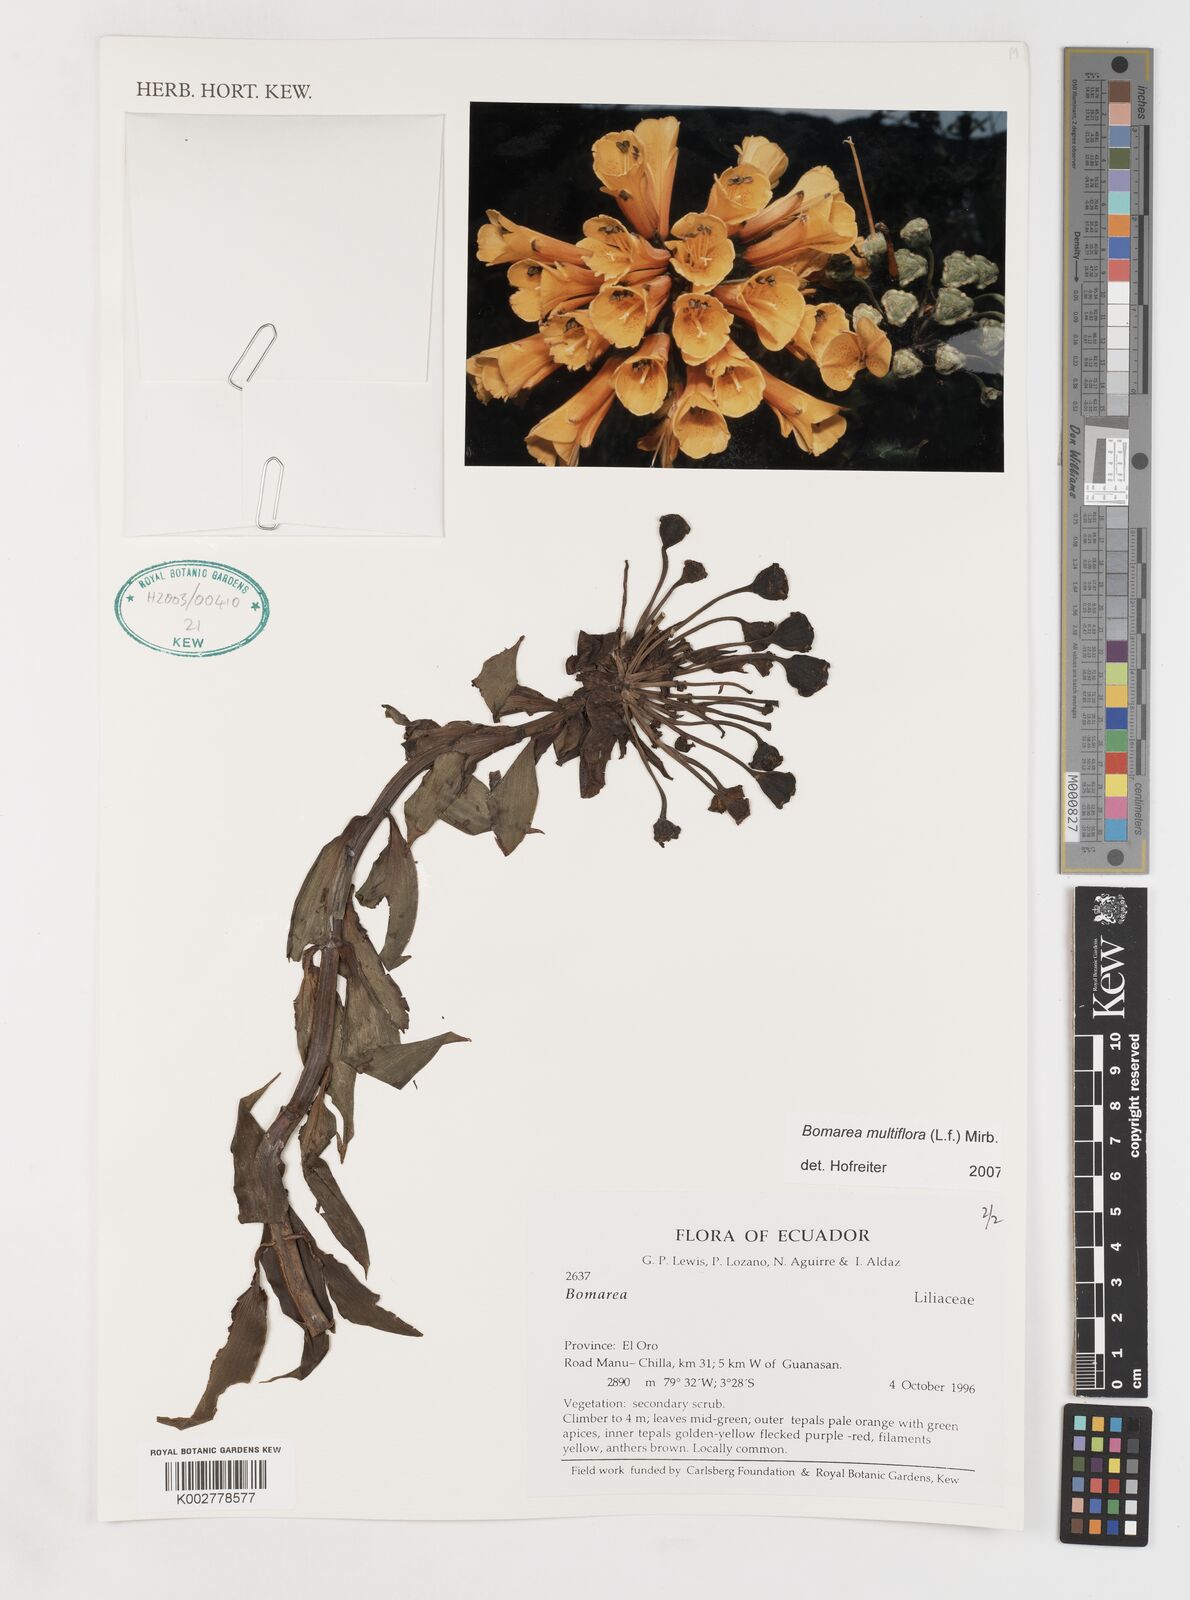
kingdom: Plantae
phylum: Tracheophyta
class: Liliopsida
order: Liliales
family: Alstroemeriaceae
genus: Bomarea
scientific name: Bomarea multiflora
